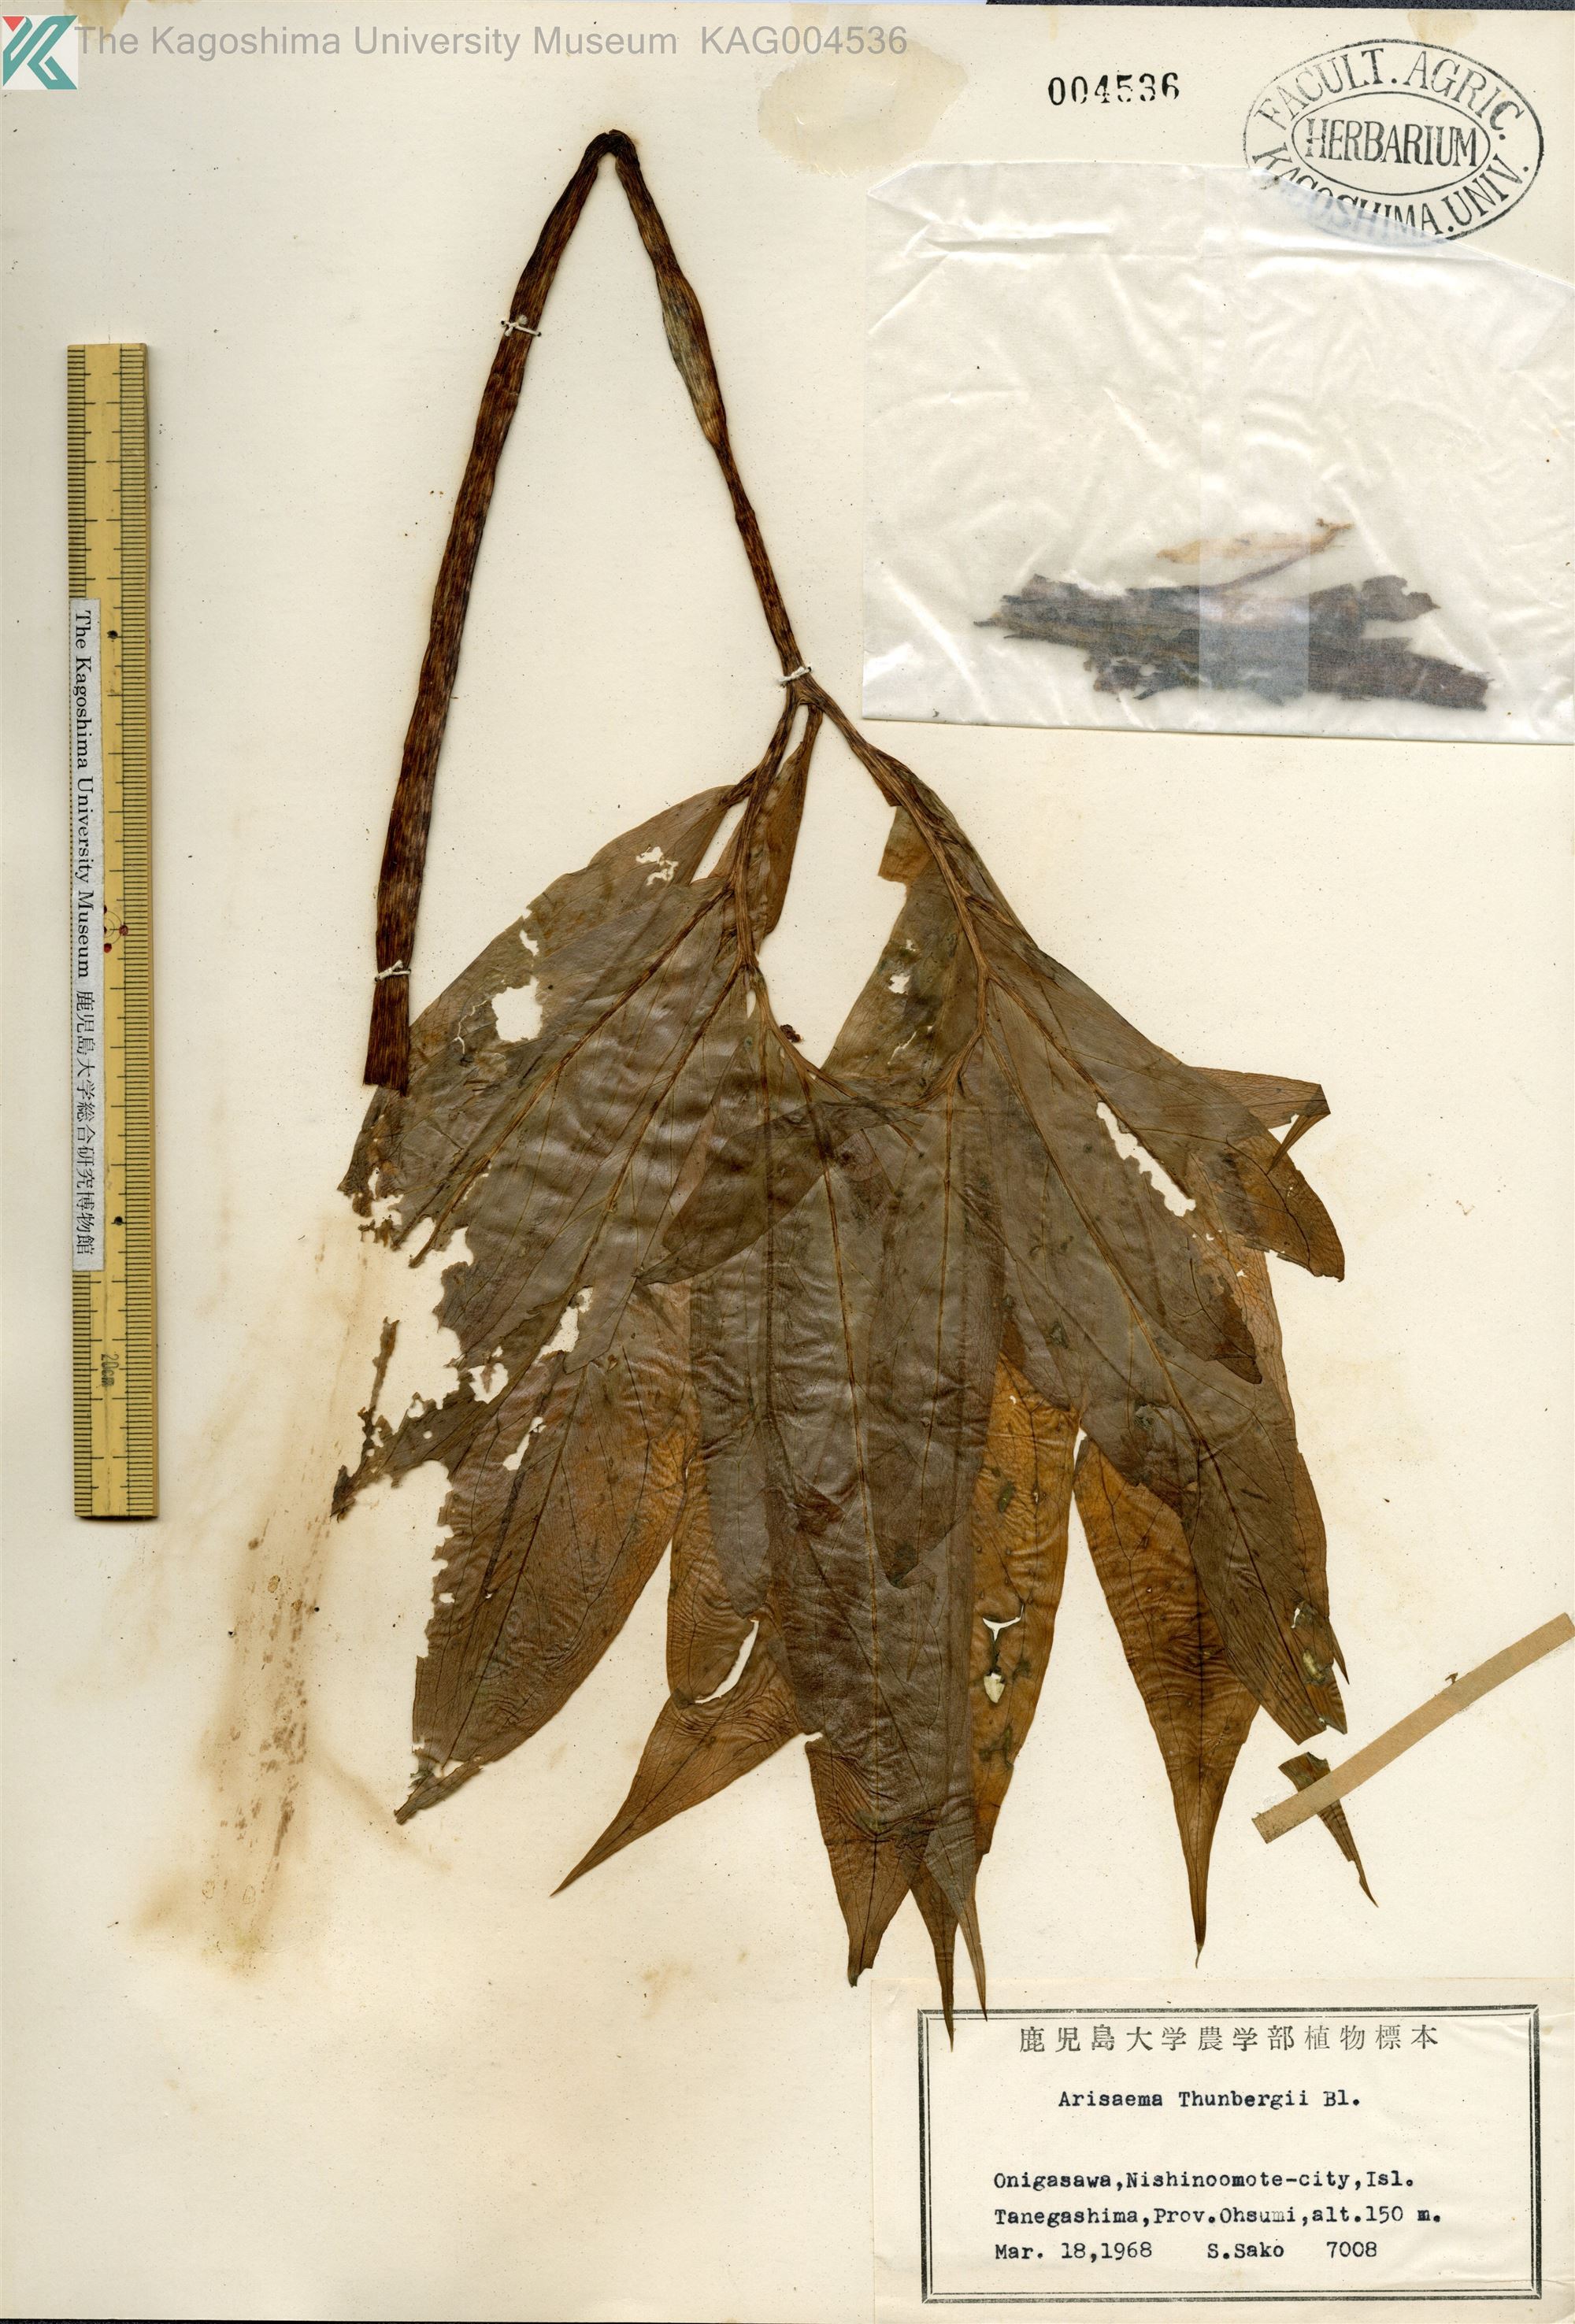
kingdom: Plantae
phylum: Tracheophyta
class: Liliopsida
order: Alismatales
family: Araceae
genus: Arisaema
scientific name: Arisaema thunbergii
